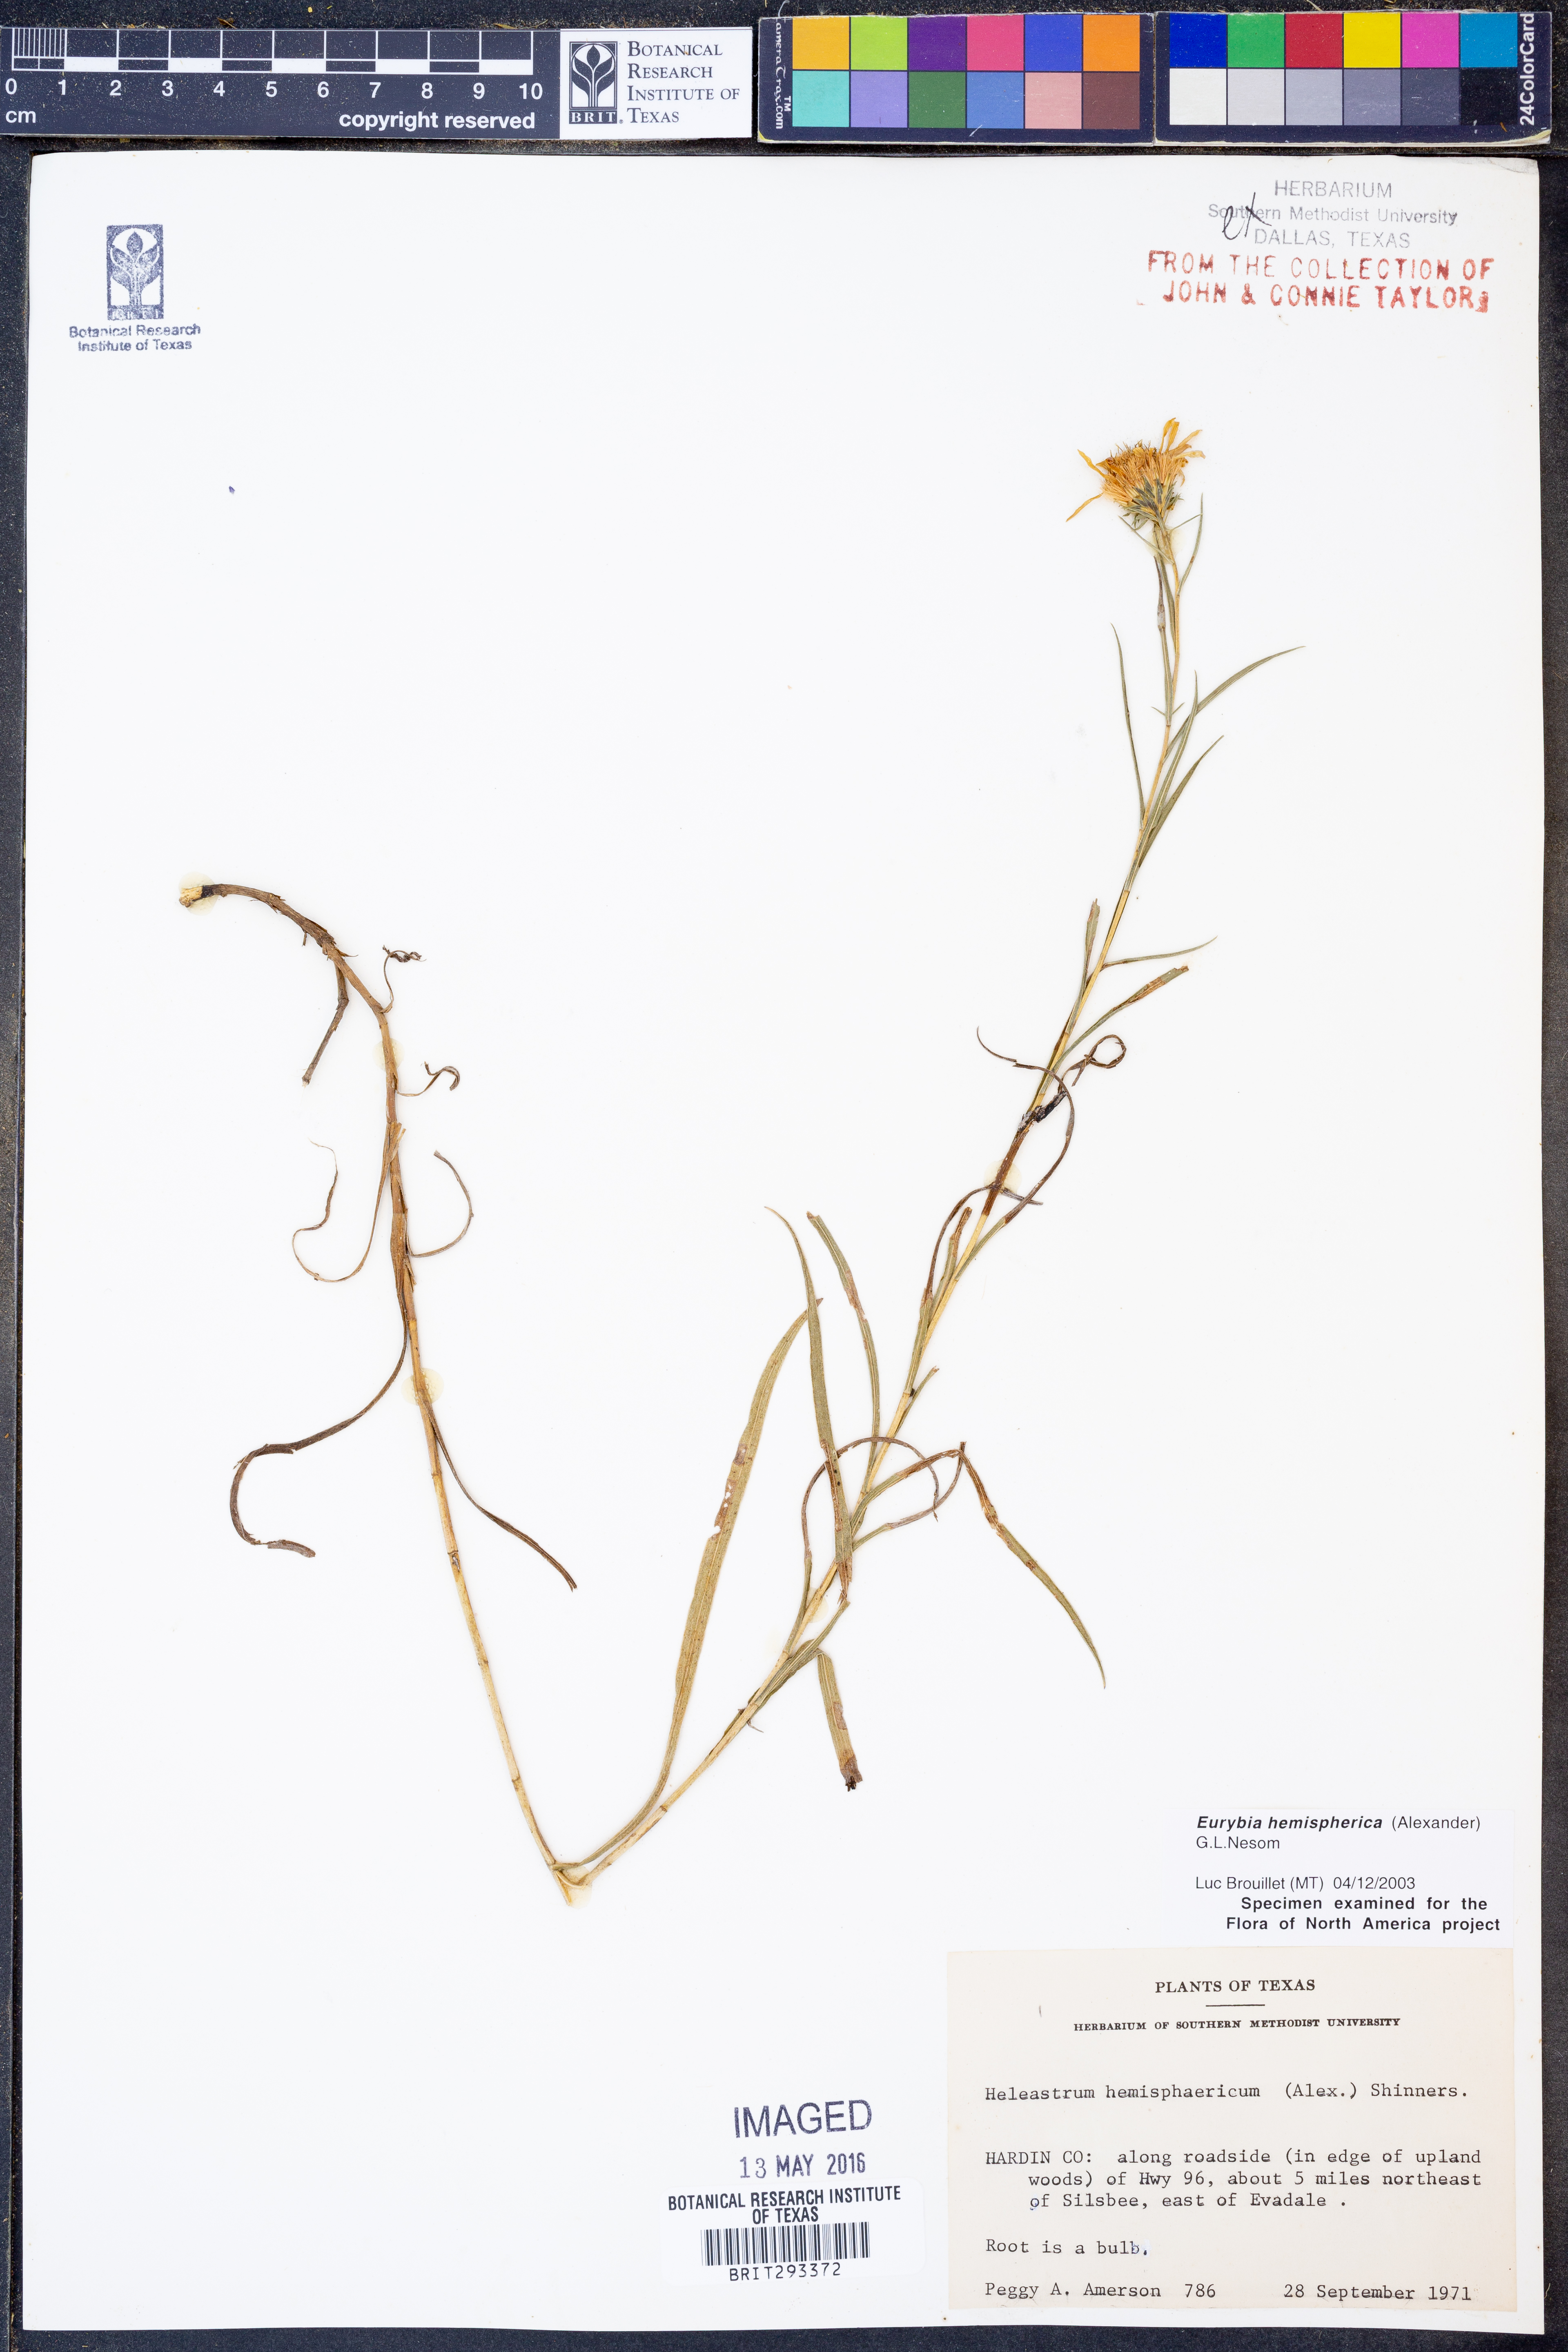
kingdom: Plantae
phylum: Tracheophyta
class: Magnoliopsida
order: Asterales
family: Asteraceae
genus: Eurybia
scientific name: Eurybia hemispherica
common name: Showy aster
